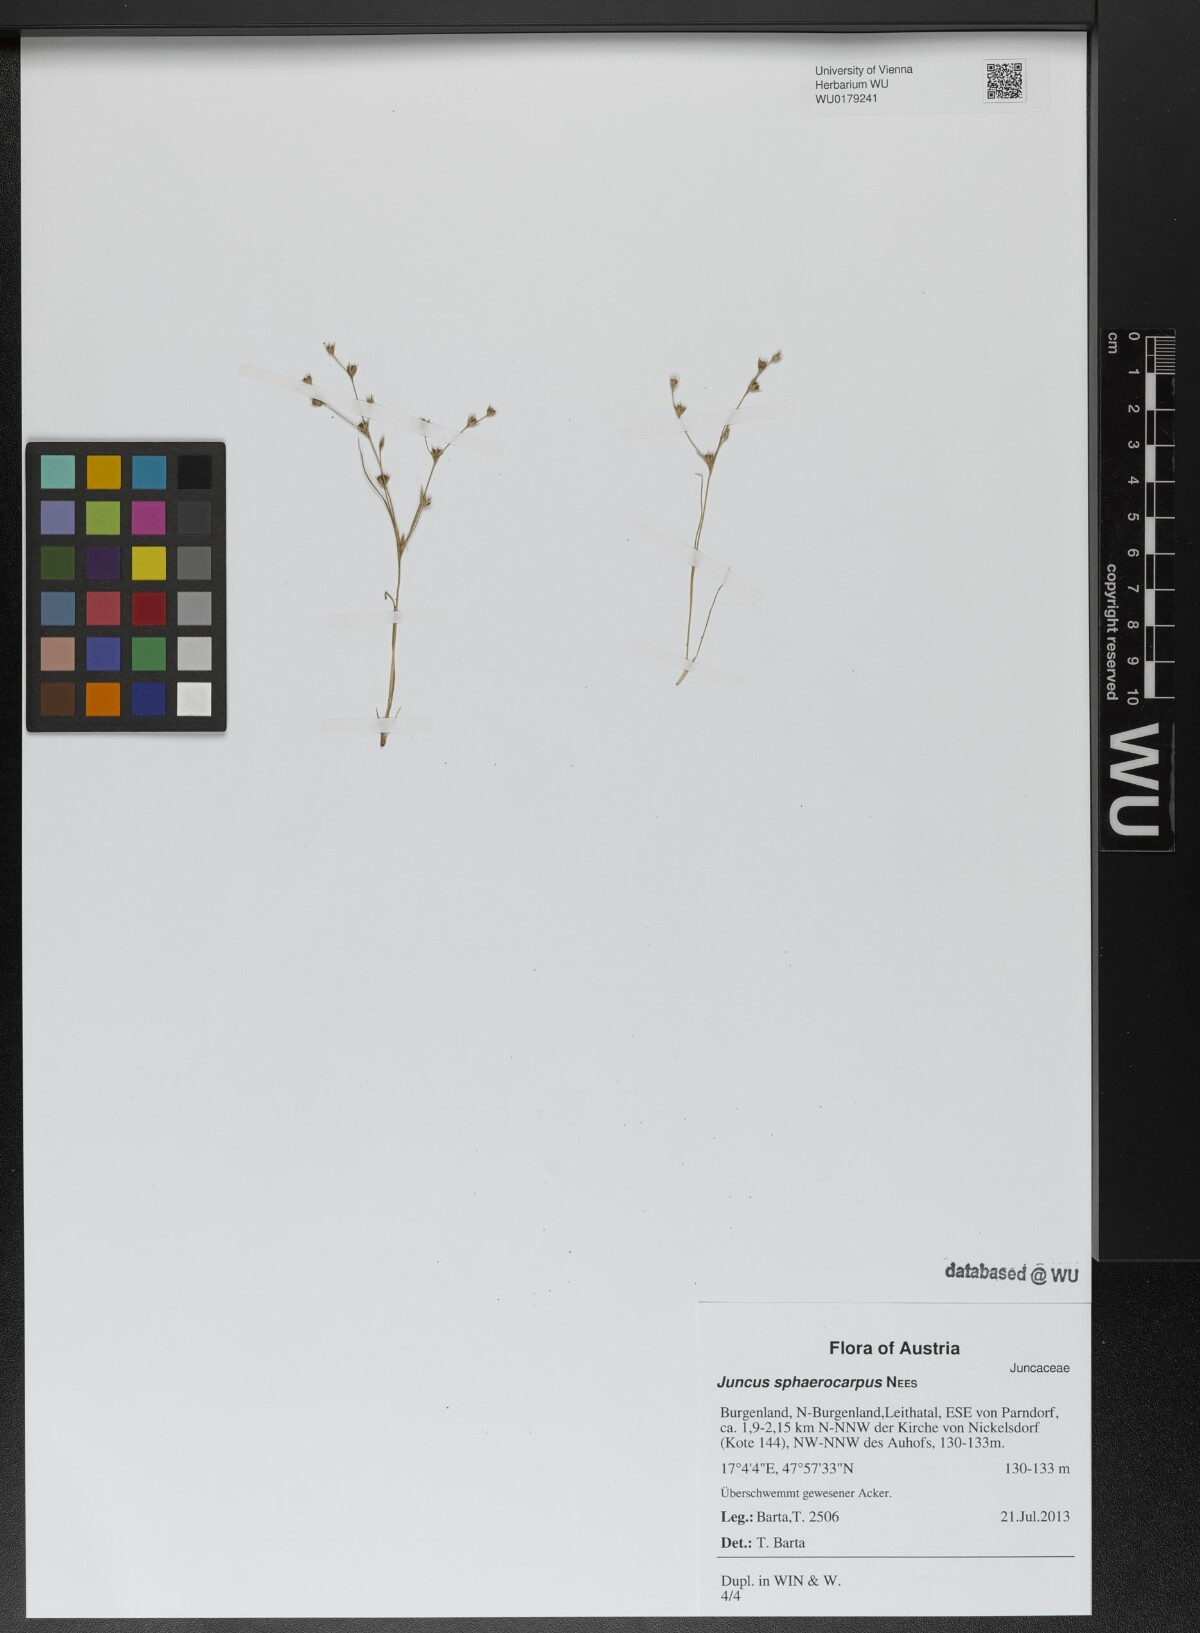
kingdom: Plantae
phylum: Tracheophyta
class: Liliopsida
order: Poales
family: Juncaceae
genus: Juncus
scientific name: Juncus sphaerocarpus
